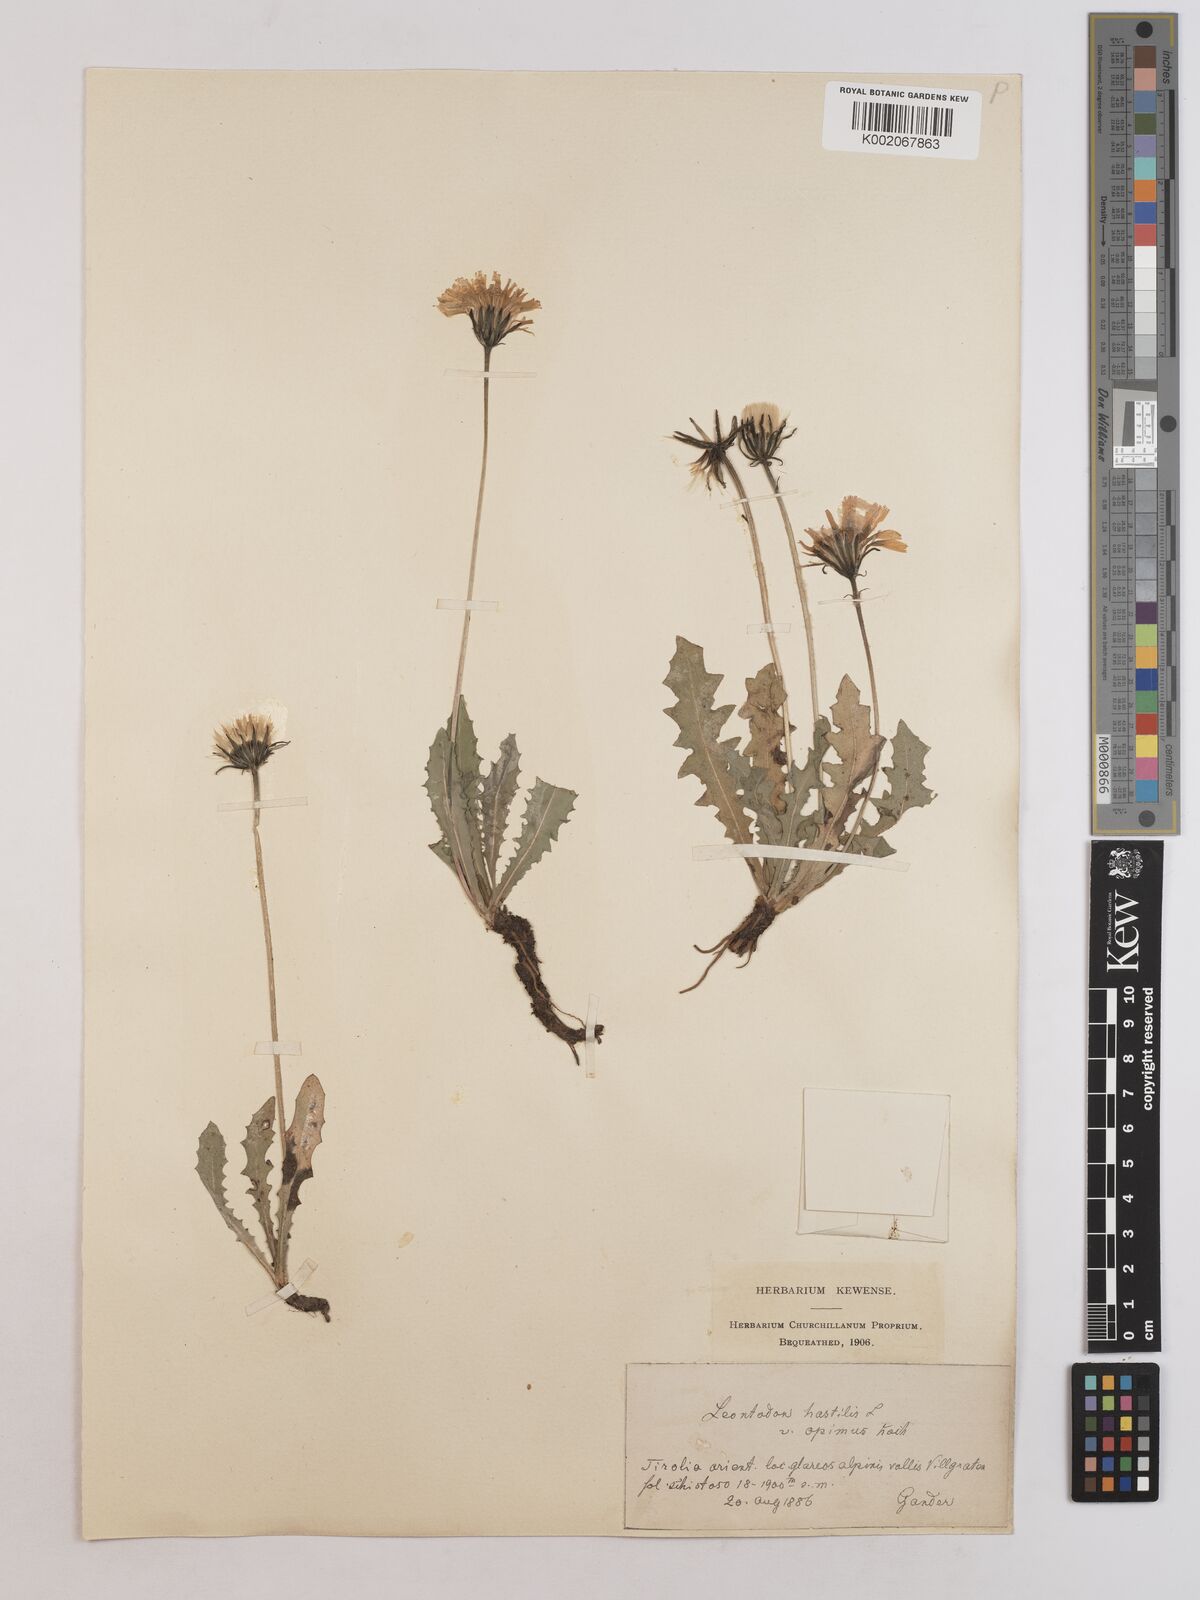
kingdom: Plantae
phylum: Tracheophyta
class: Magnoliopsida
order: Asterales
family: Asteraceae
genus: Leontodon
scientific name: Leontodon hispidus
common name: Rough hawkbit
